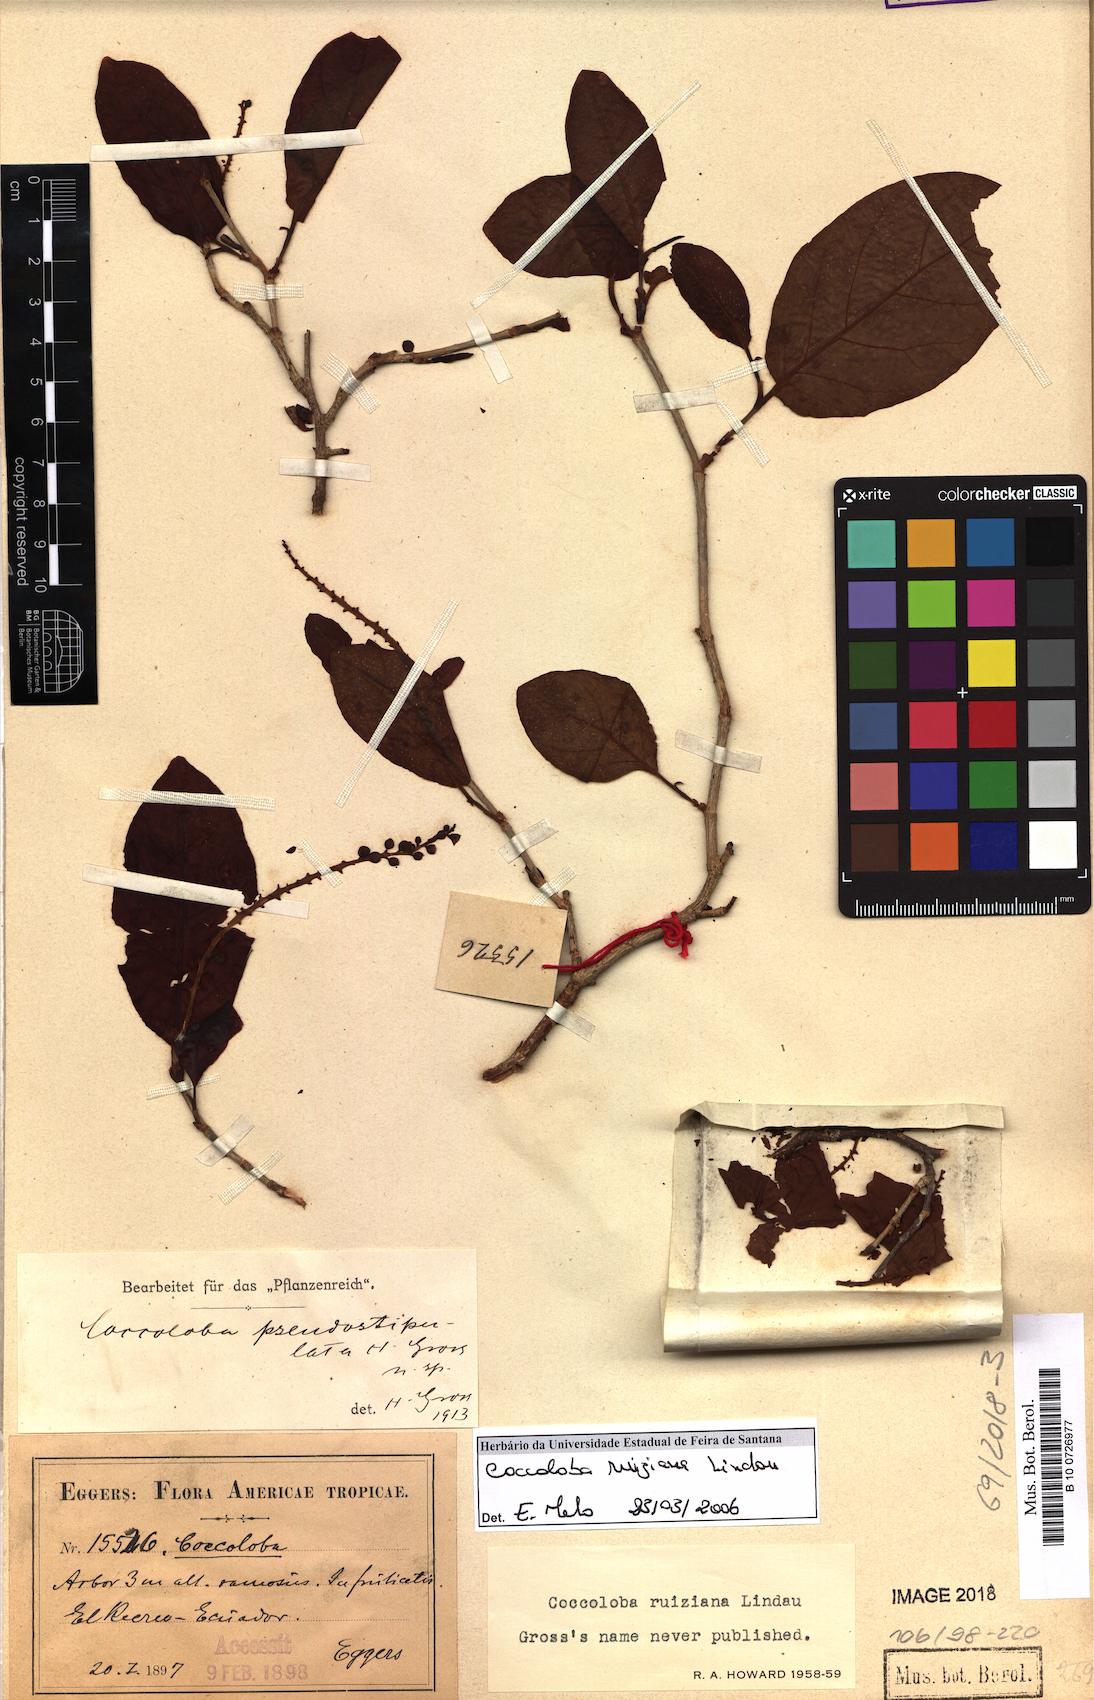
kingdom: Plantae
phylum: Tracheophyta
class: Magnoliopsida
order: Caryophyllales
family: Polygonaceae
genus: Coccoloba
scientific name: Coccoloba ruiziana
